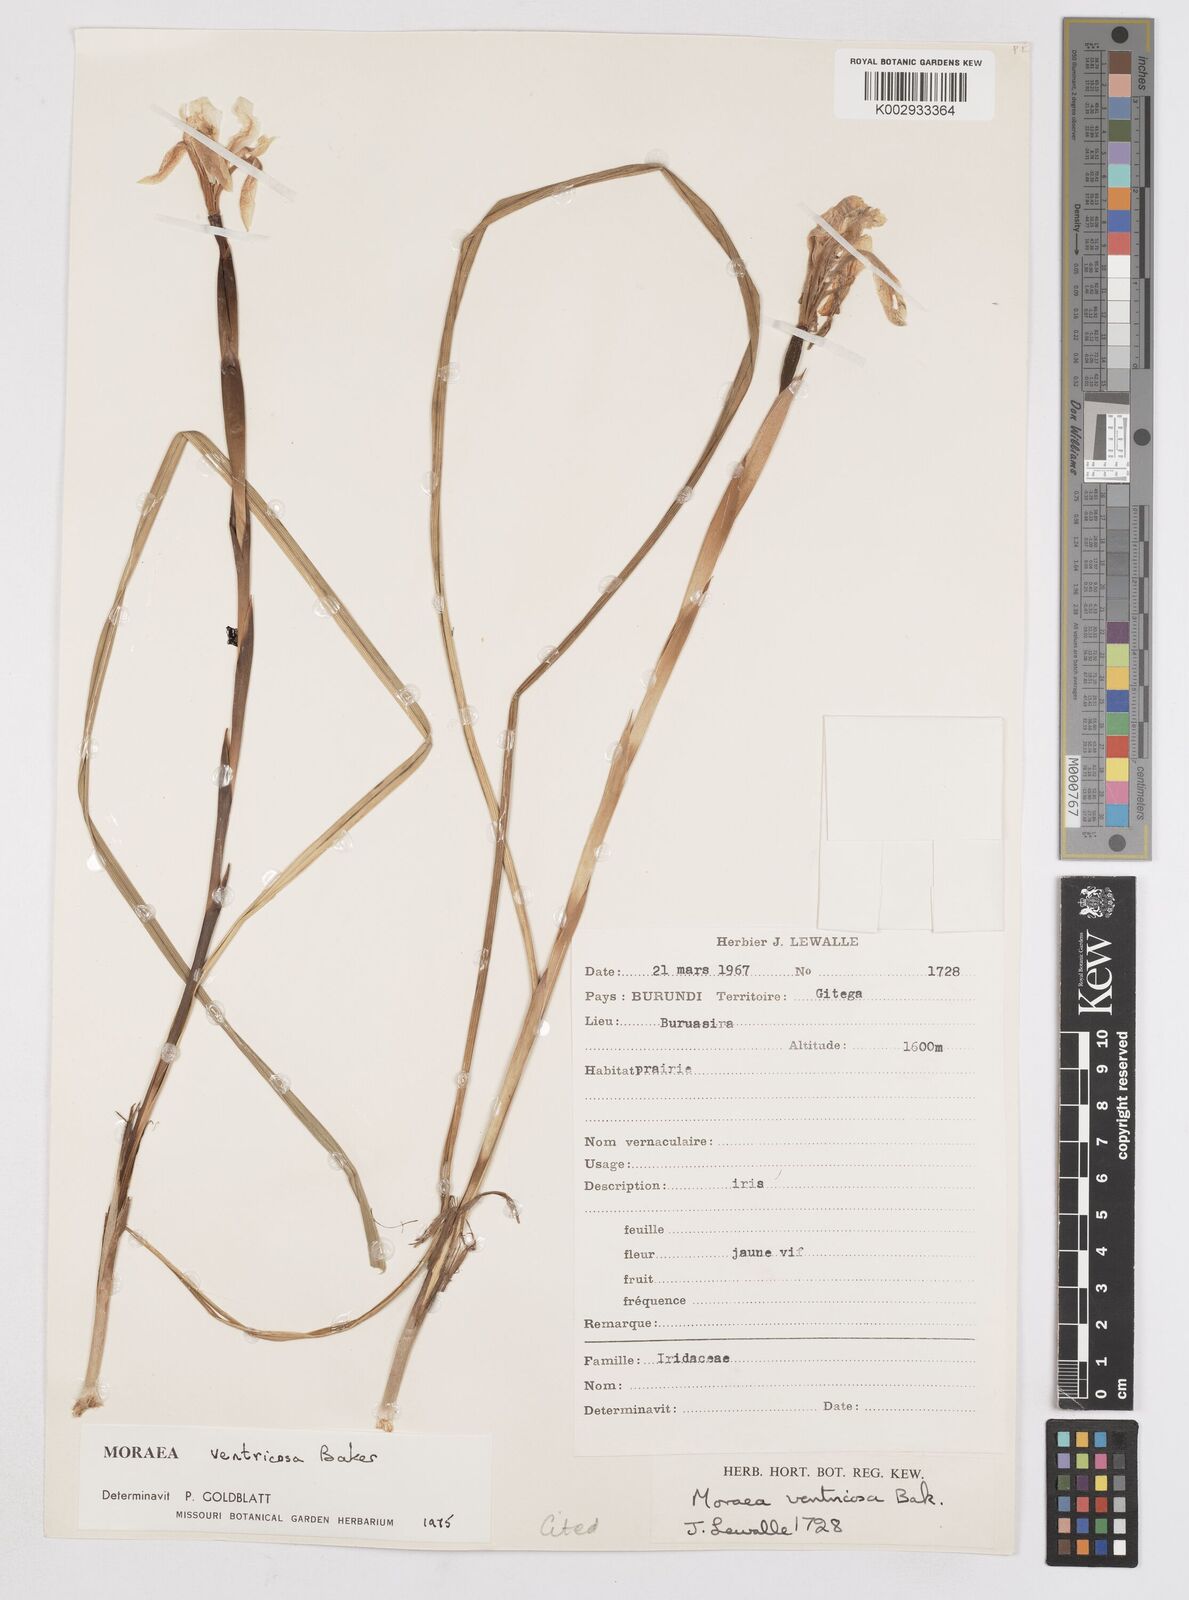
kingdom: Plantae
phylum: Tracheophyta
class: Liliopsida
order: Asparagales
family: Iridaceae
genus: Moraea
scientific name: Moraea ventricosa
